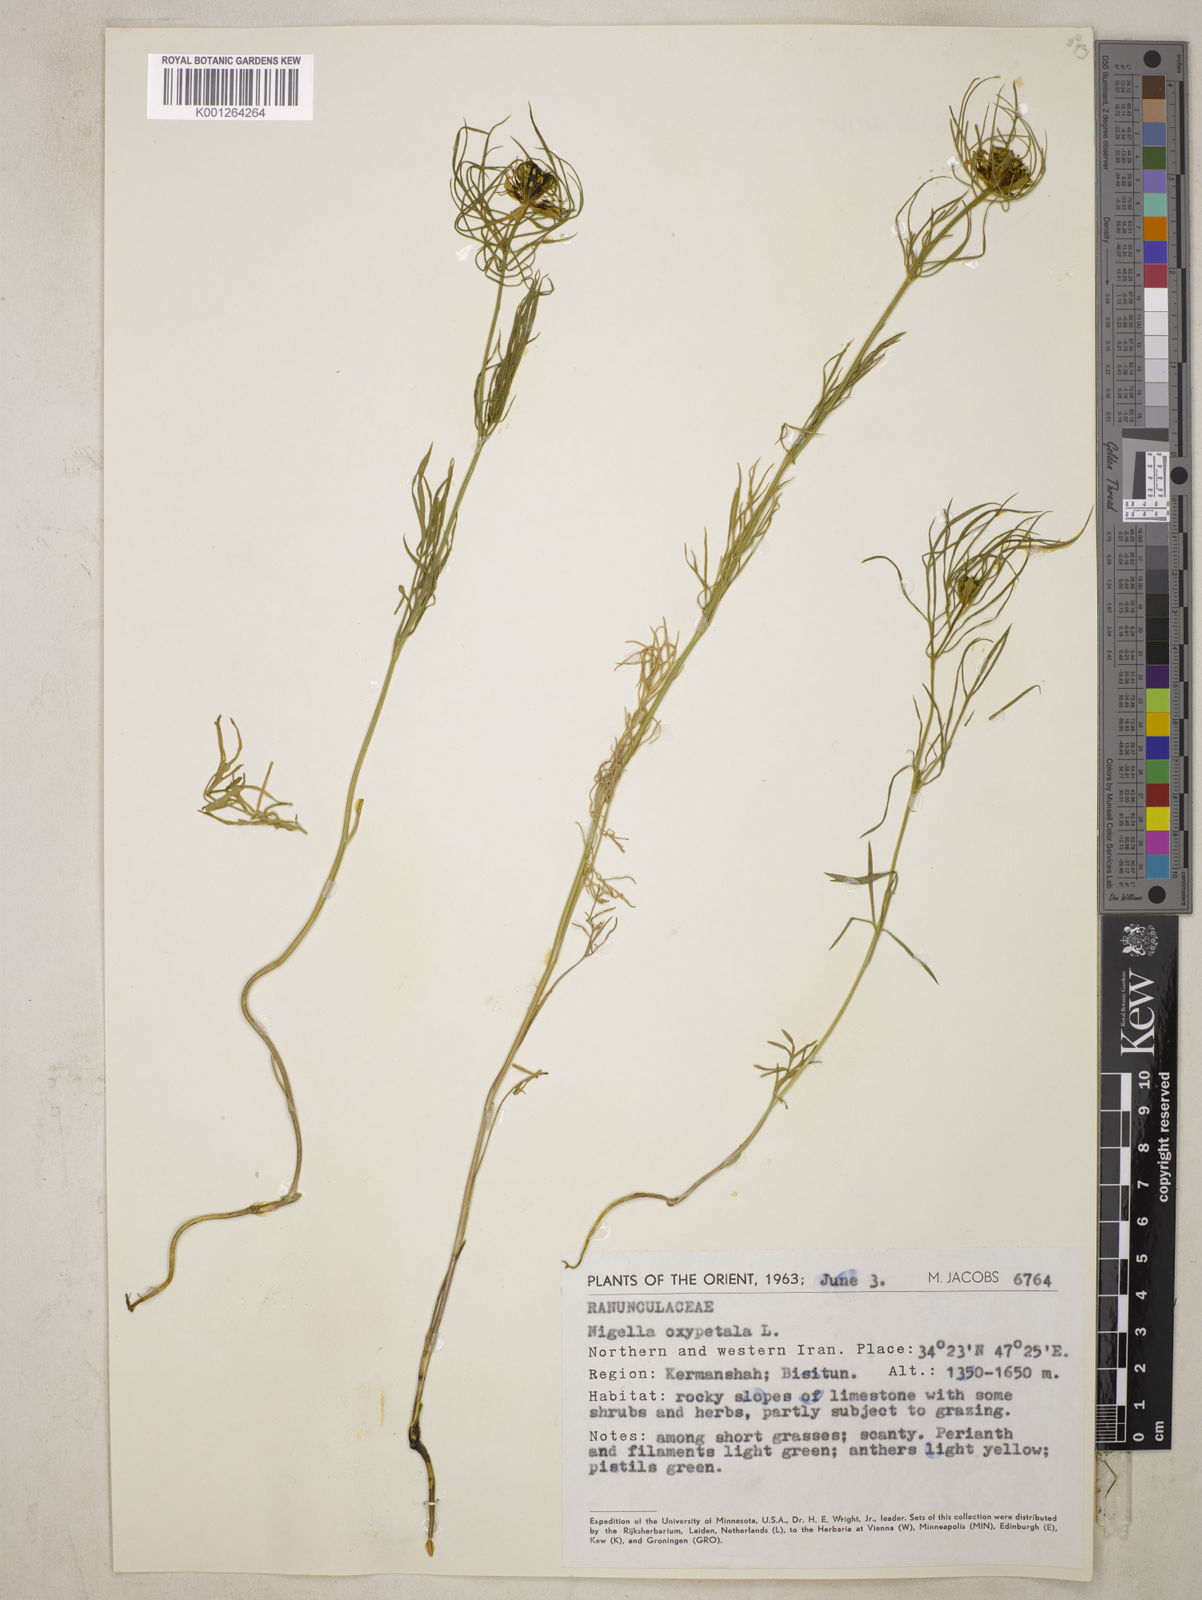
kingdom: Plantae
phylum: Tracheophyta
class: Magnoliopsida
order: Ranunculales
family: Ranunculaceae
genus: Nigella
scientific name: Nigella oxypetala
